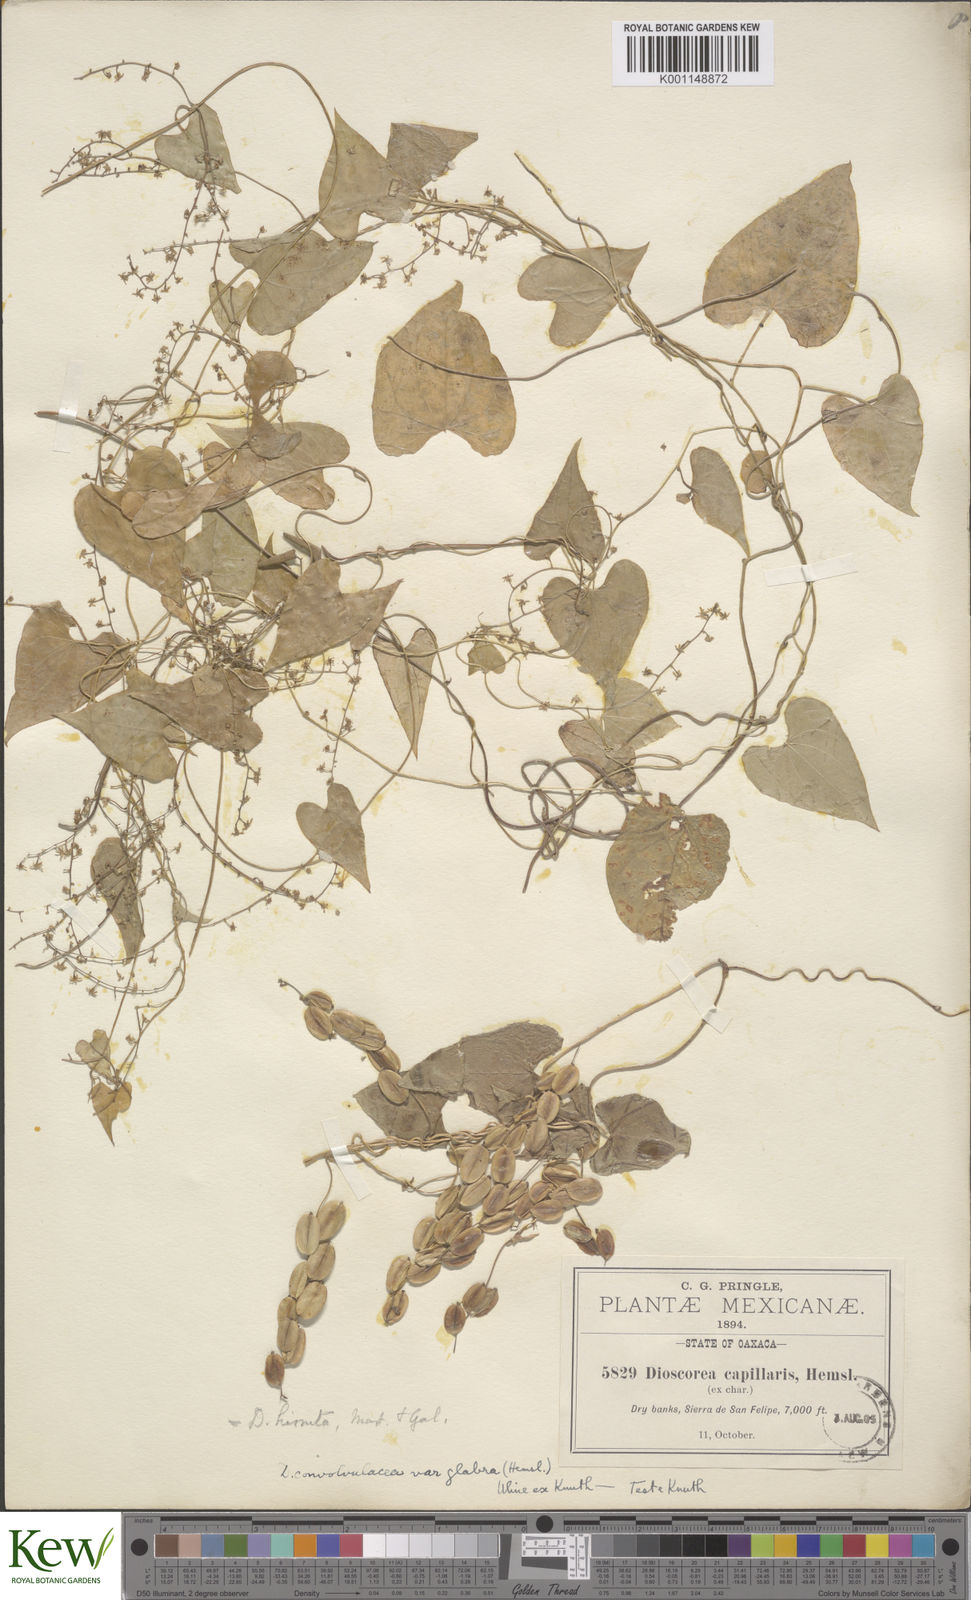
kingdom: Plantae
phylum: Tracheophyta
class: Liliopsida
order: Dioscoreales
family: Dioscoreaceae
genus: Dioscorea
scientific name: Dioscorea convolvulacea
